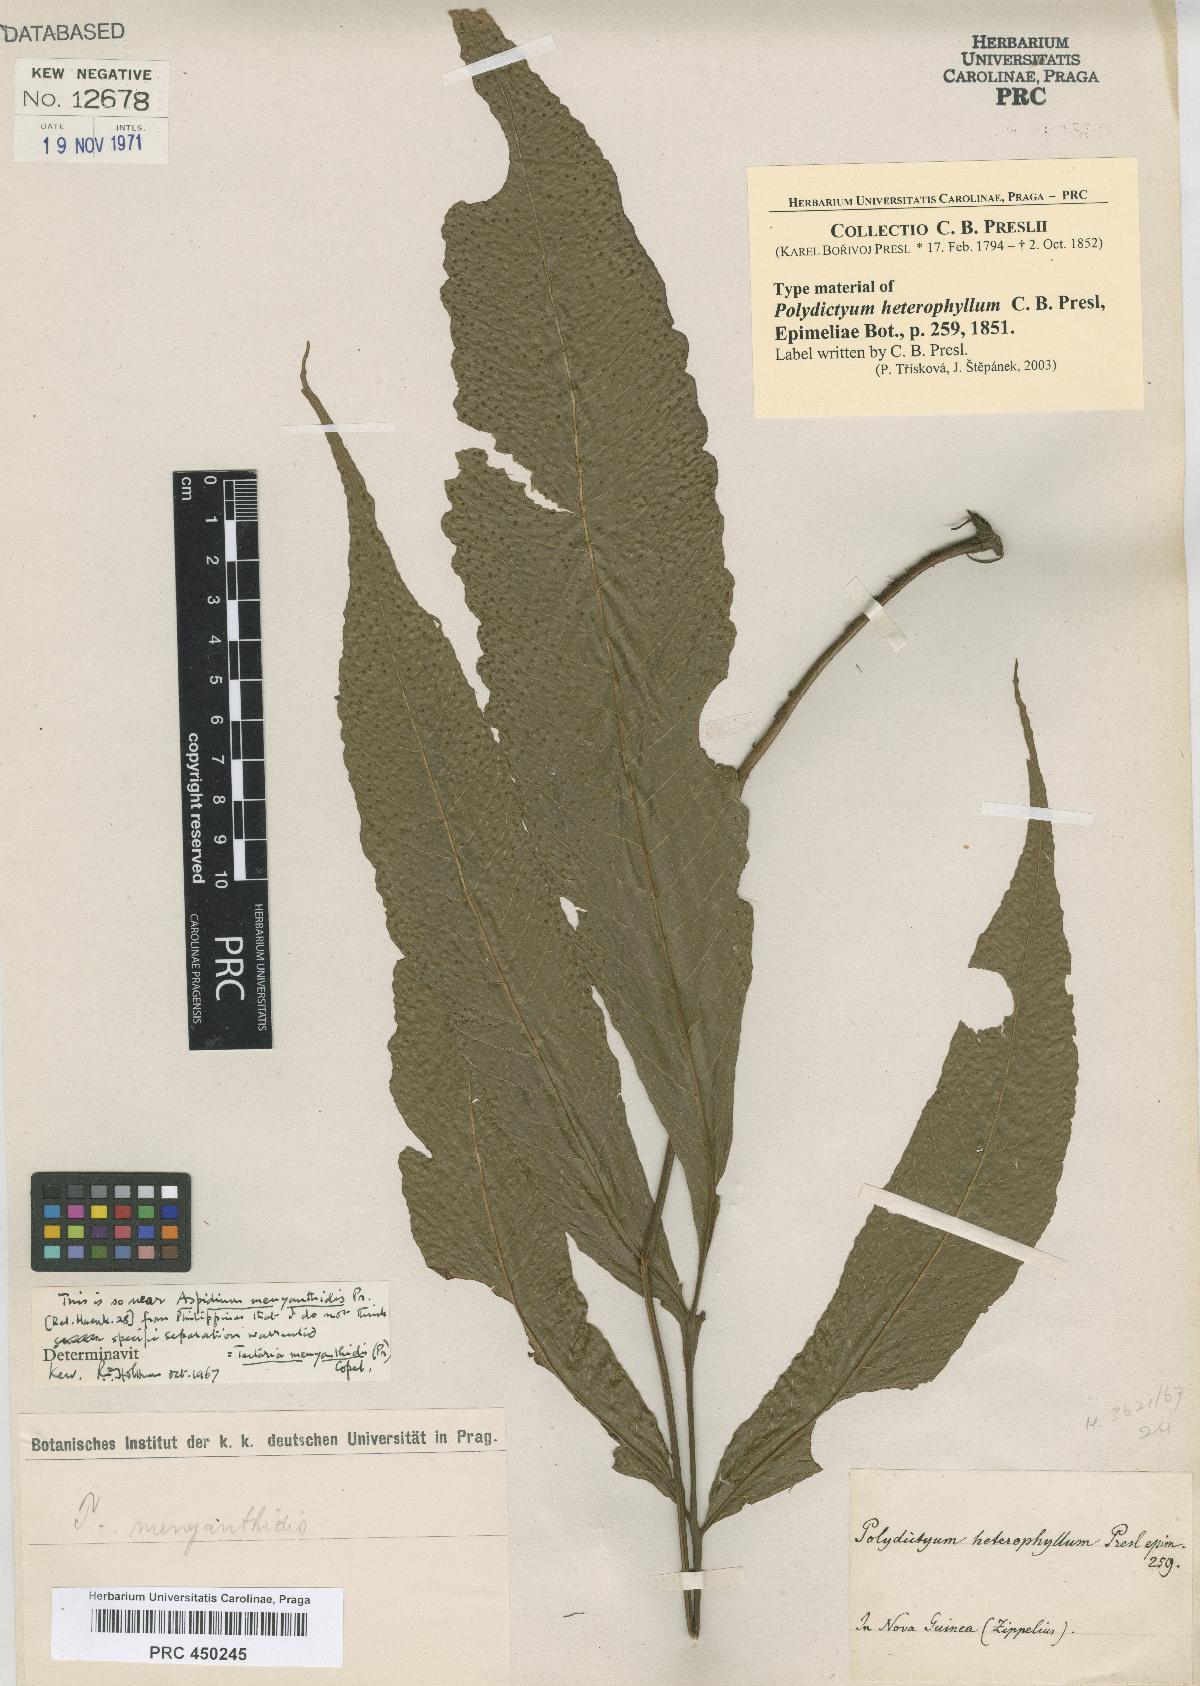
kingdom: Plantae
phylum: Tracheophyta
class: Polypodiopsida
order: Polypodiales
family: Tectariaceae
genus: Polydictyum
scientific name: Polydictyum menyanthidis
